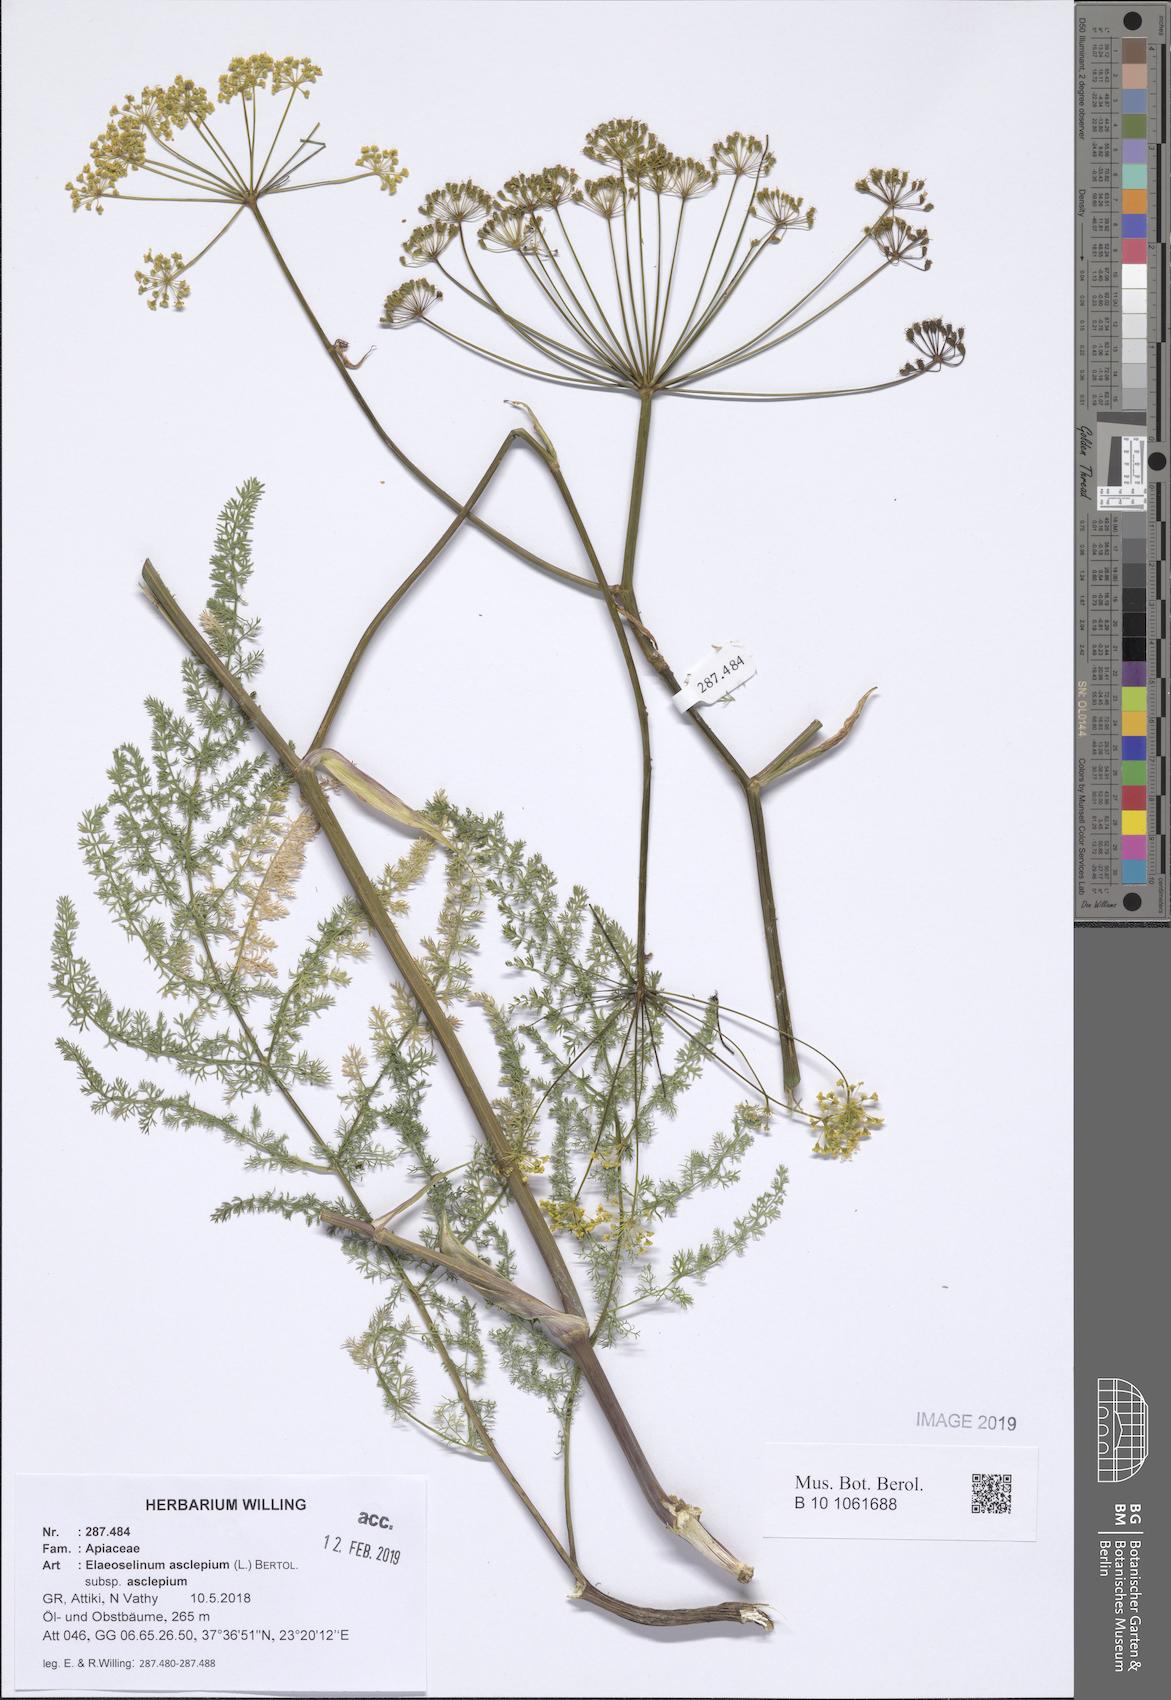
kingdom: Plantae
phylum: Tracheophyta
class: Magnoliopsida
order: Apiales
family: Apiaceae
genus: Thapsia
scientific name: Thapsia asclepium
